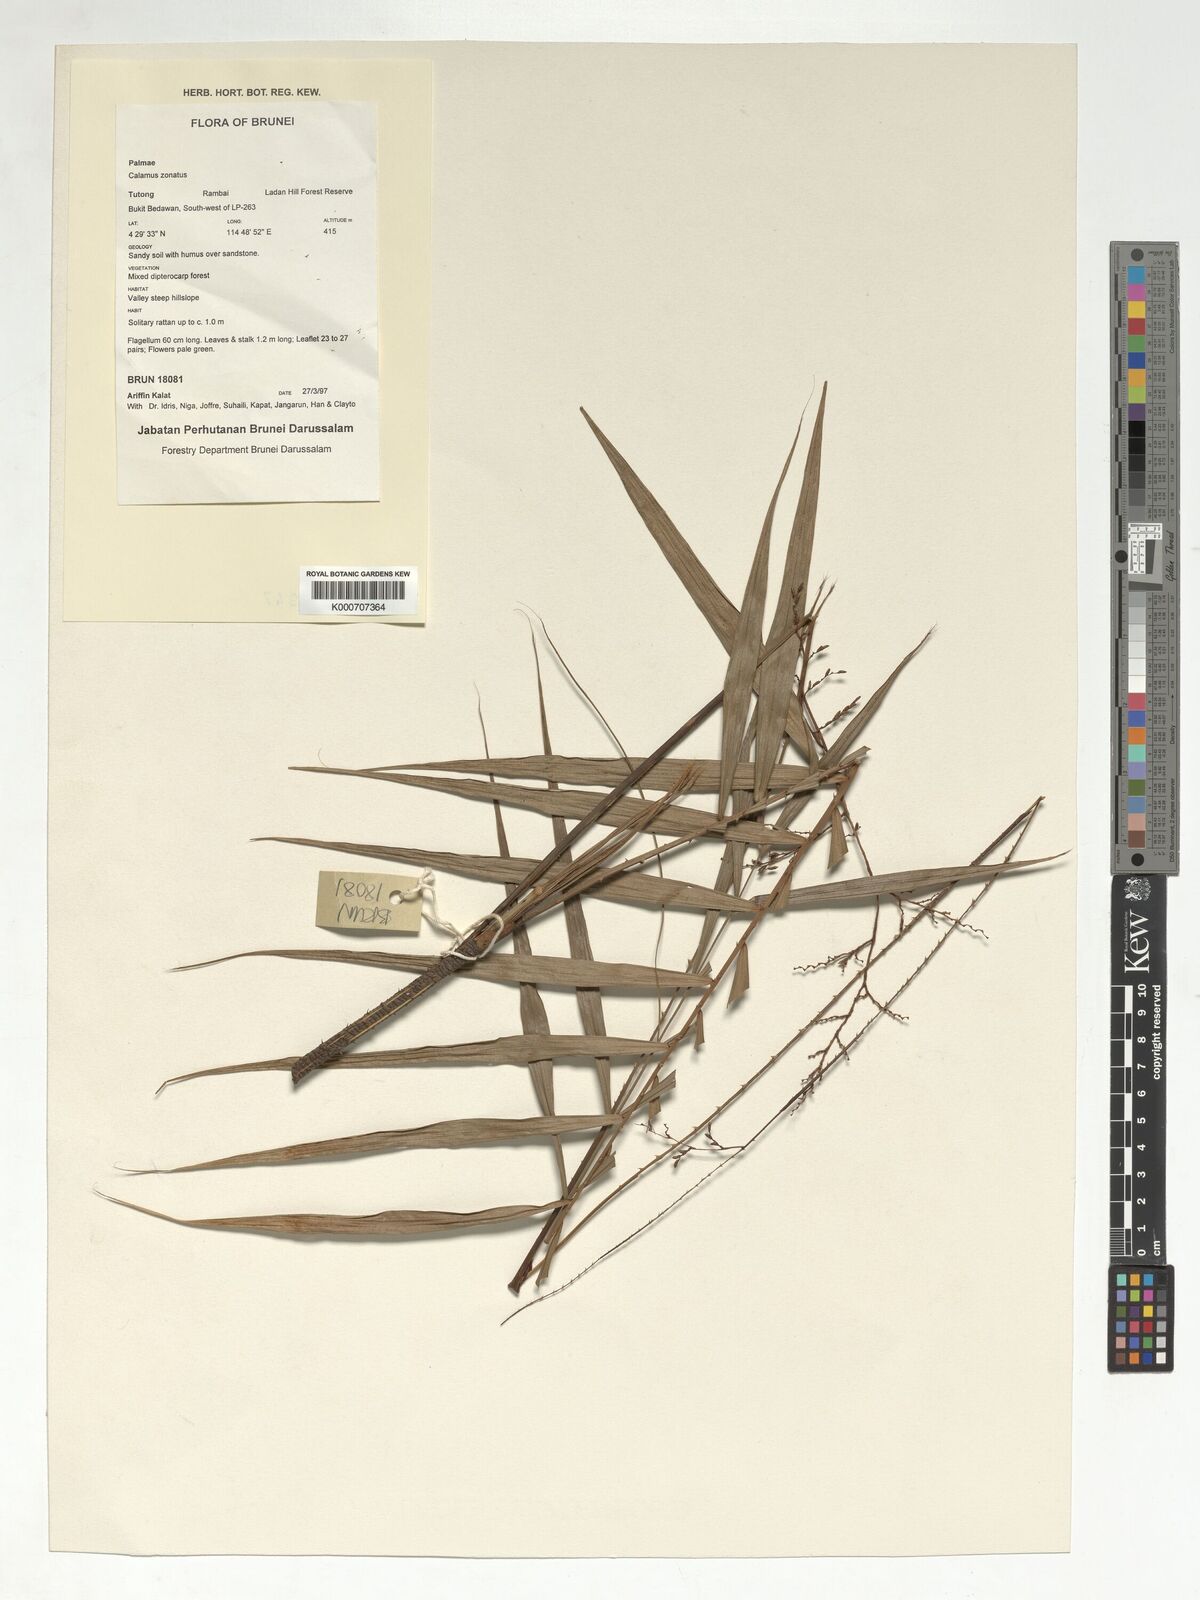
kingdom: Plantae
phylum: Tracheophyta
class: Liliopsida
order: Arecales
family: Arecaceae
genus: Calamus
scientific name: Calamus zonatus
